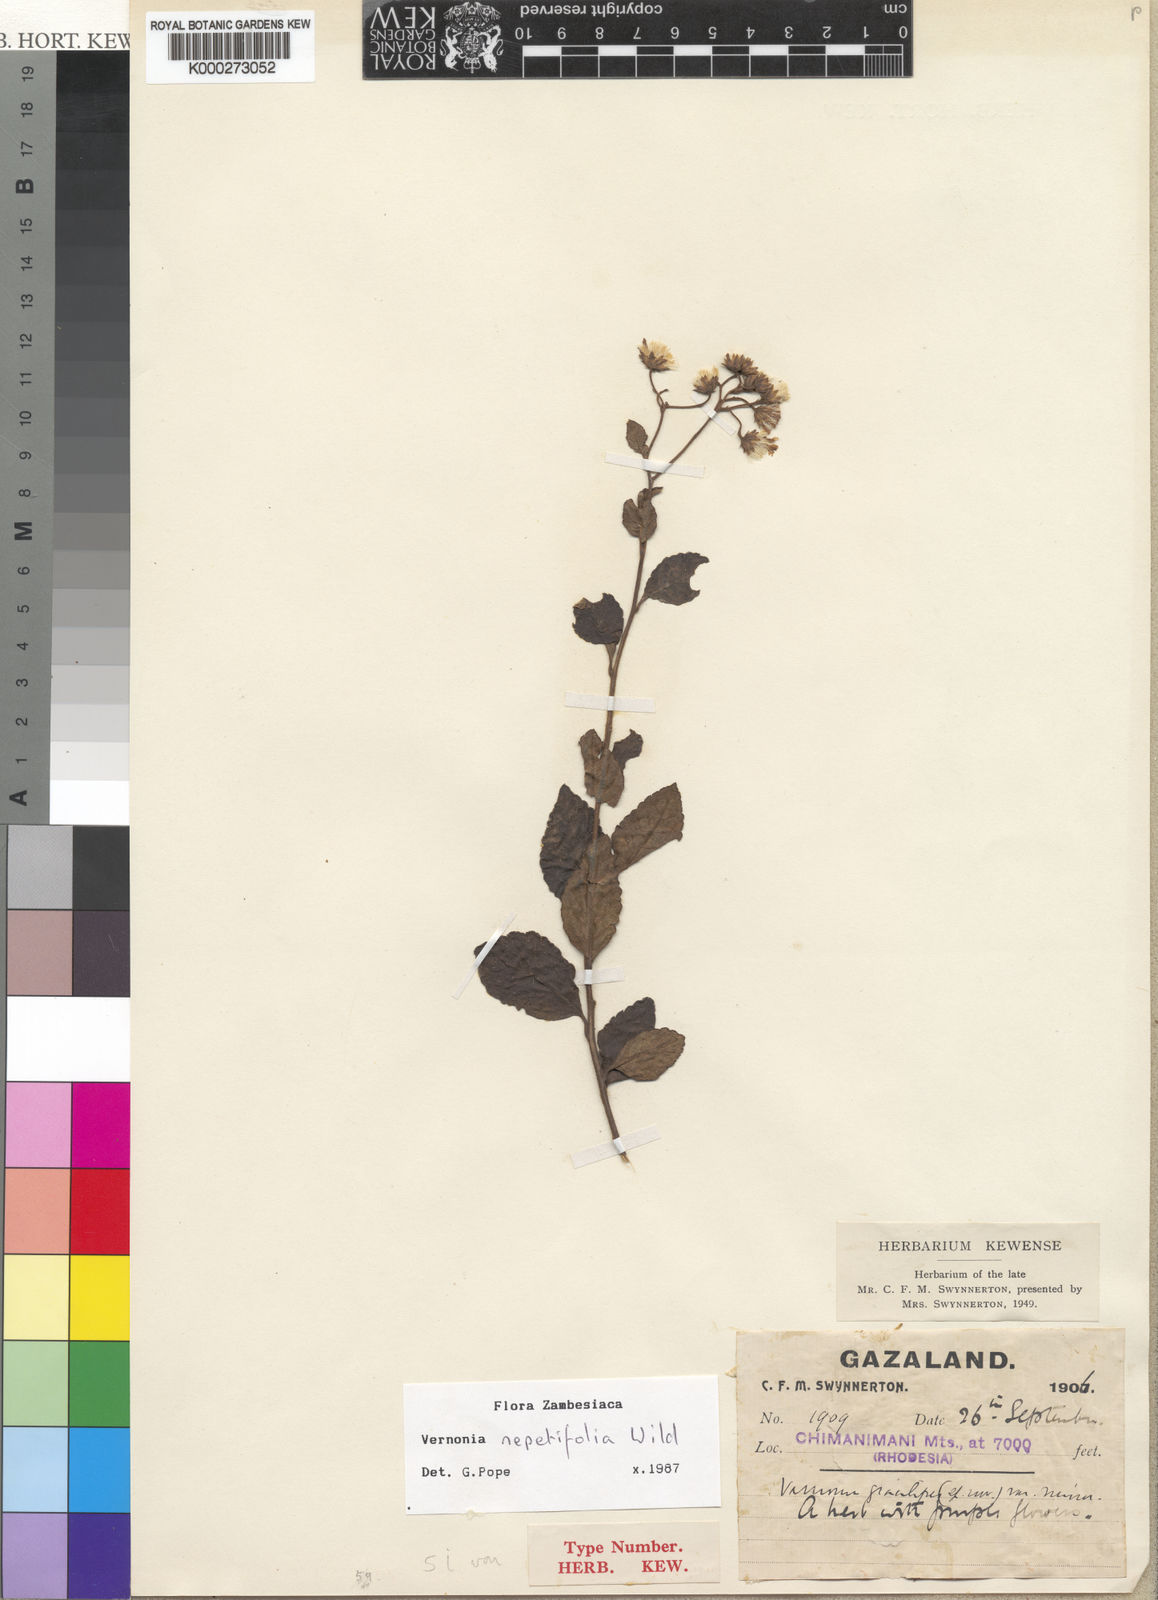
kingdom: Plantae
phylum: Tracheophyta
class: Magnoliopsida
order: Asterales
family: Asteraceae
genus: Vernonia
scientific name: Vernonia nepetifolia
